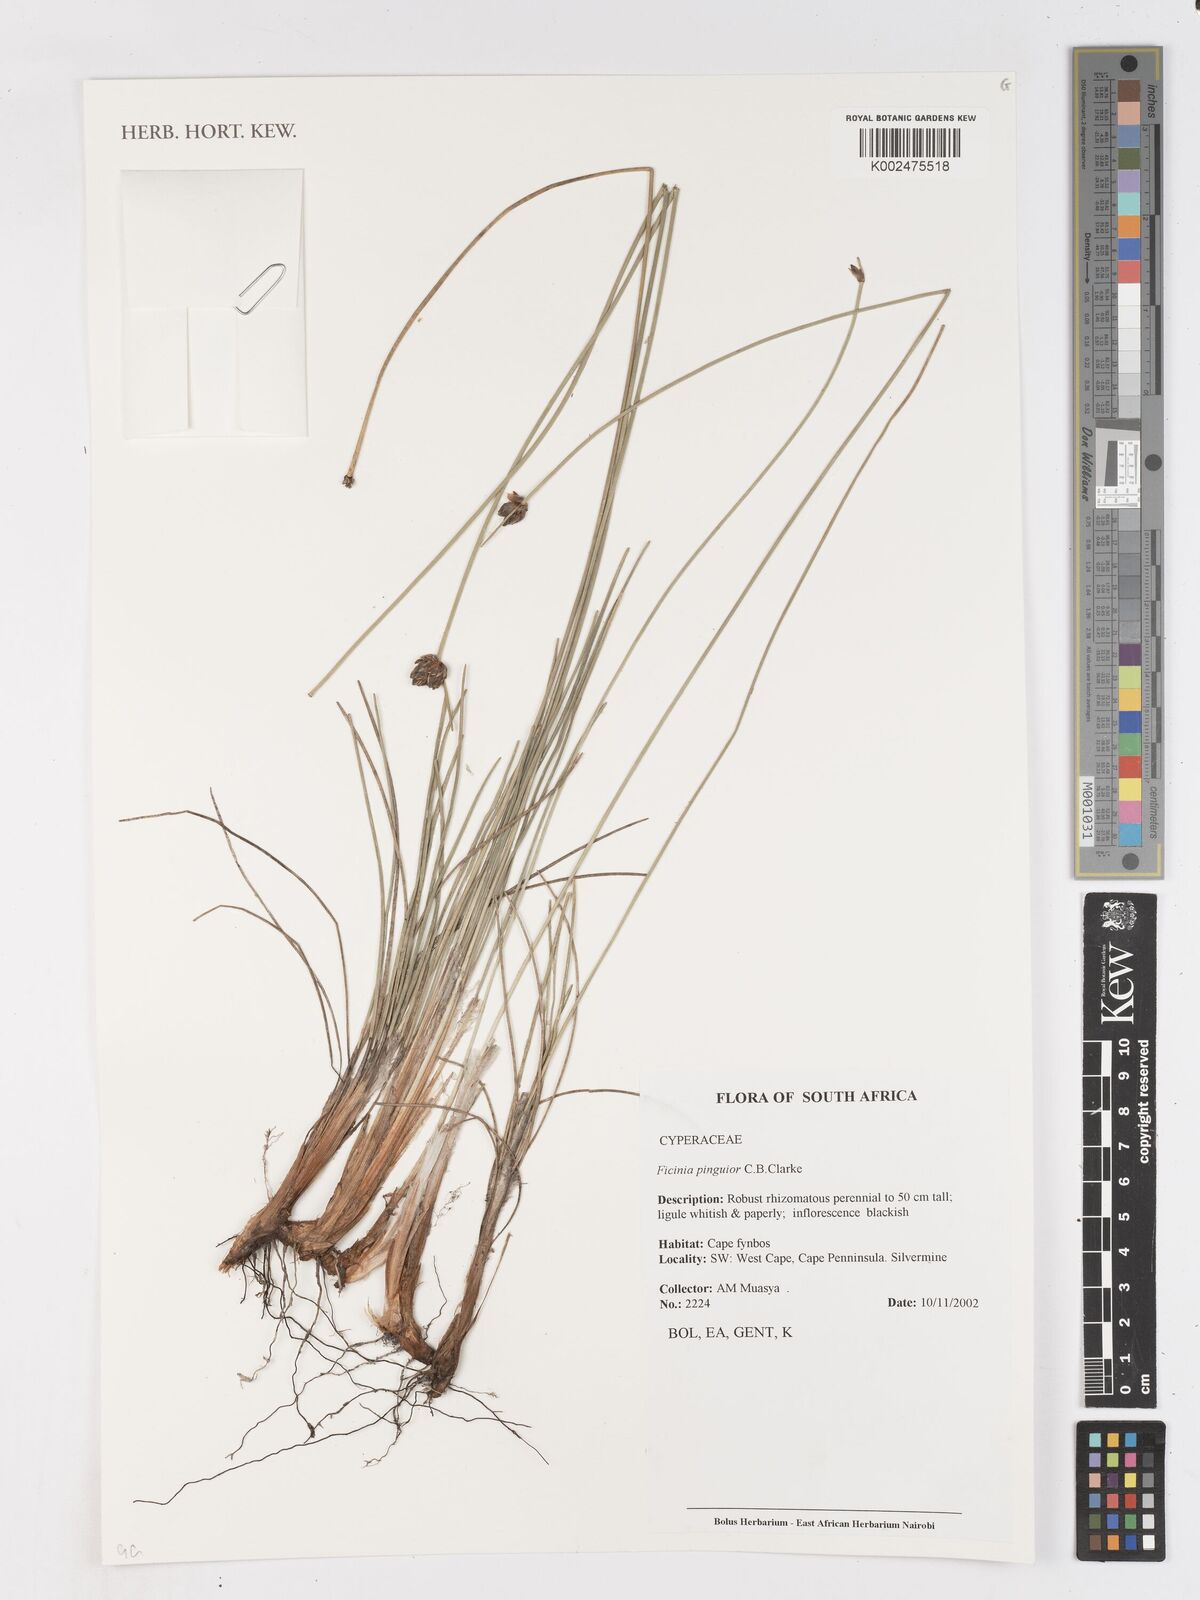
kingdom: Plantae
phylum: Tracheophyta
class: Liliopsida
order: Poales
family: Cyperaceae
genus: Ficinia
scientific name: Ficinia pinguior
